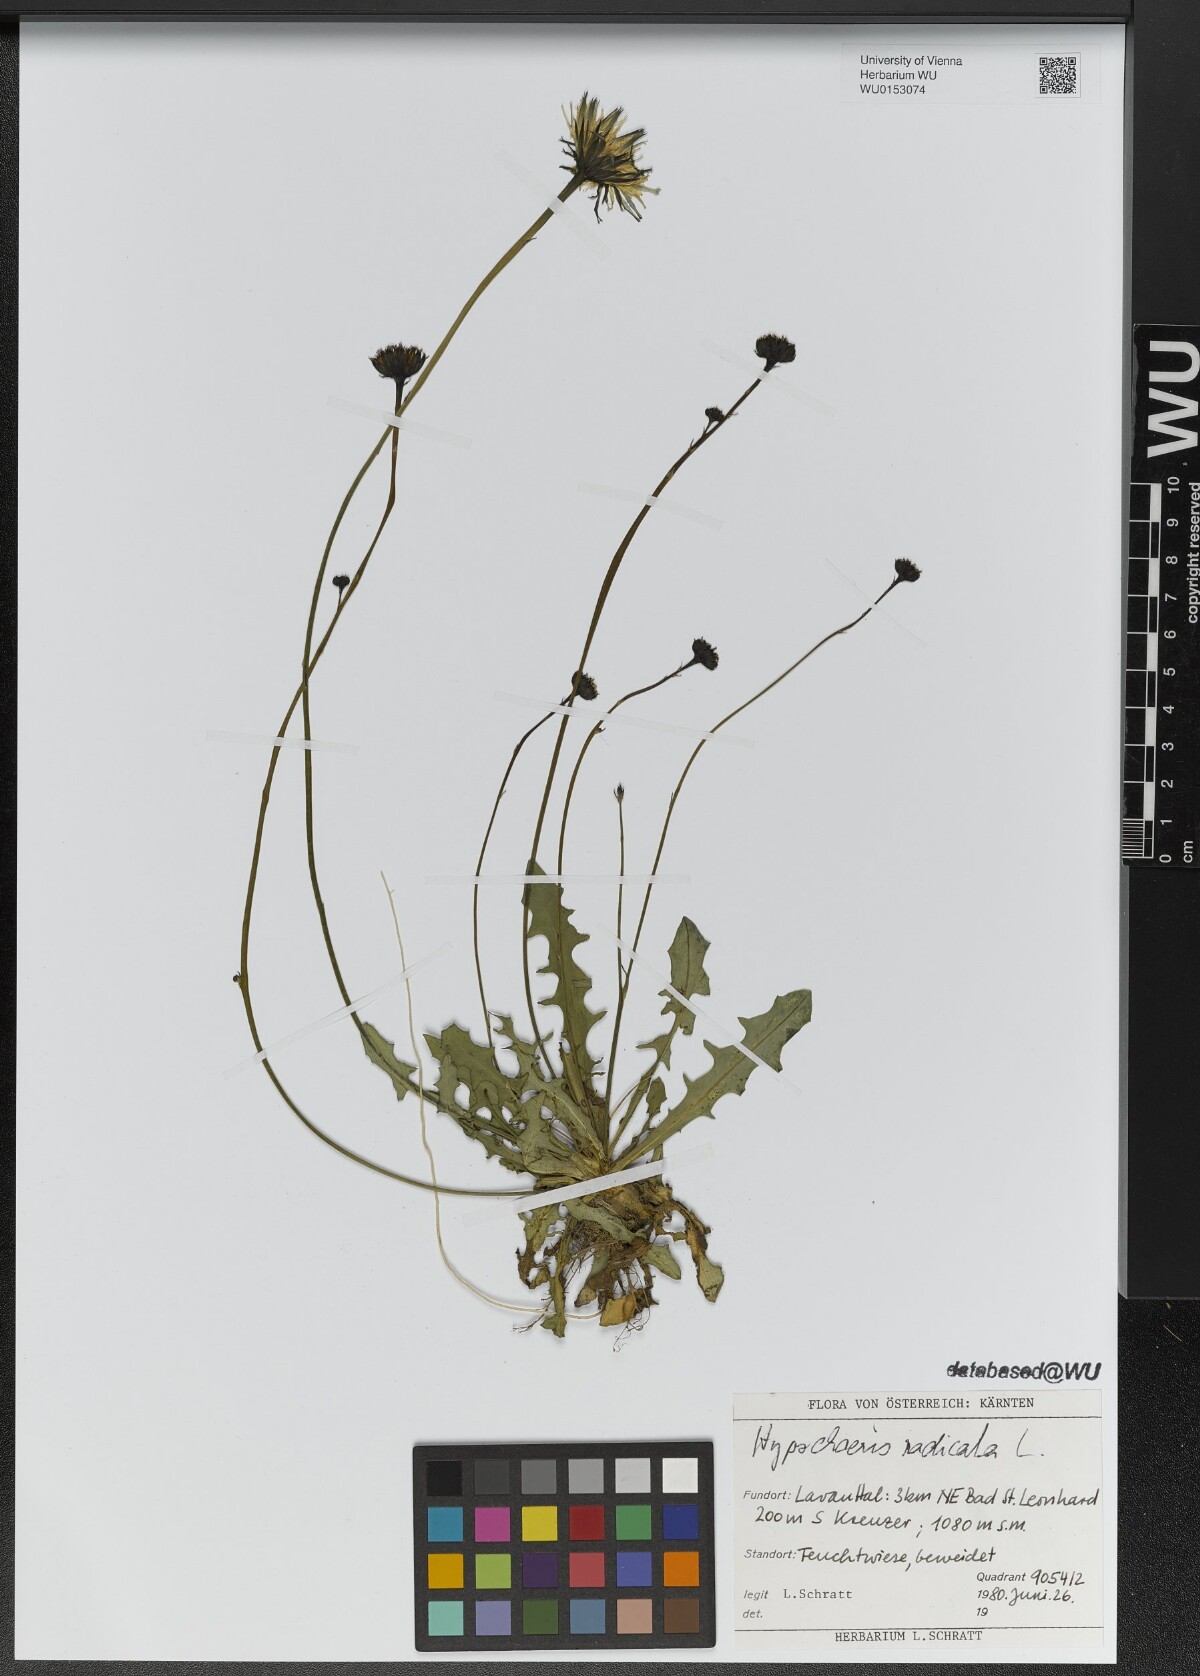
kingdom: Plantae
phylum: Tracheophyta
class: Magnoliopsida
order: Asterales
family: Asteraceae
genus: Hypochaeris
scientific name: Hypochaeris radicata
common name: Flatweed
